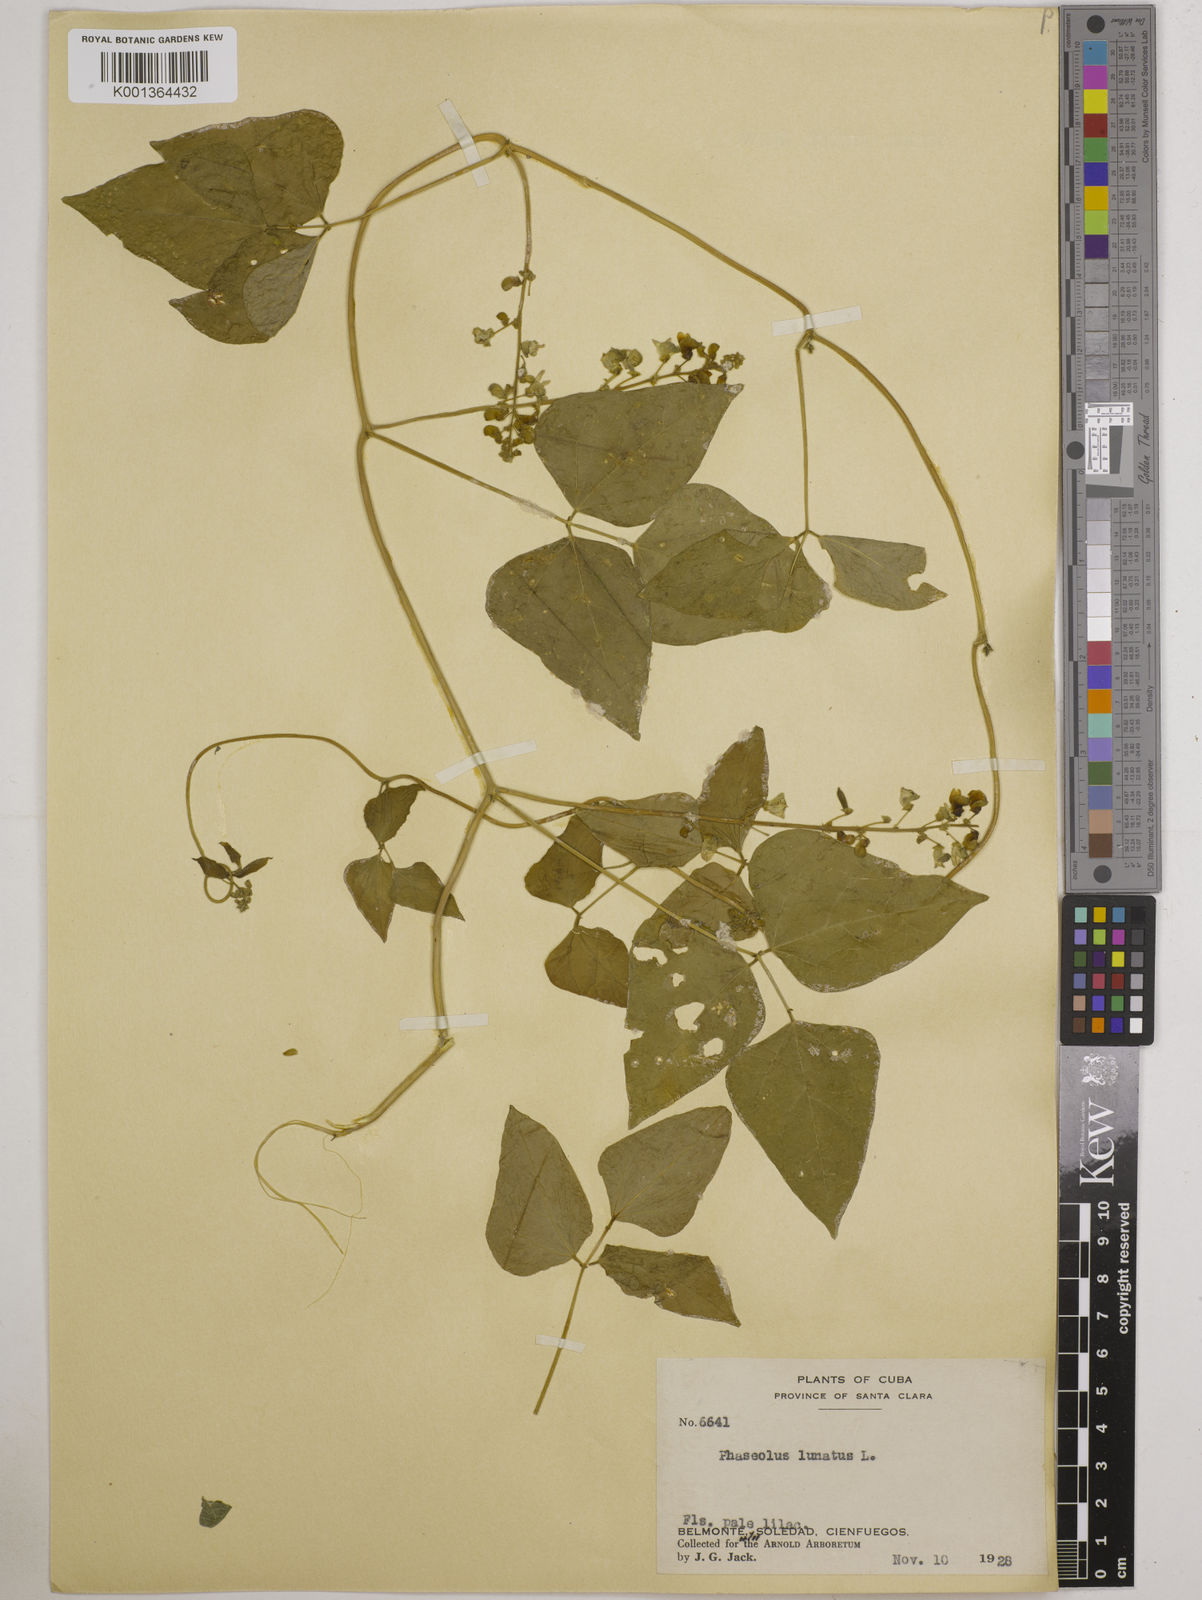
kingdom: Plantae
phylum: Tracheophyta
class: Magnoliopsida
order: Fabales
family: Fabaceae
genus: Phaseolus
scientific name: Phaseolus lunatus
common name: Sieva bean
